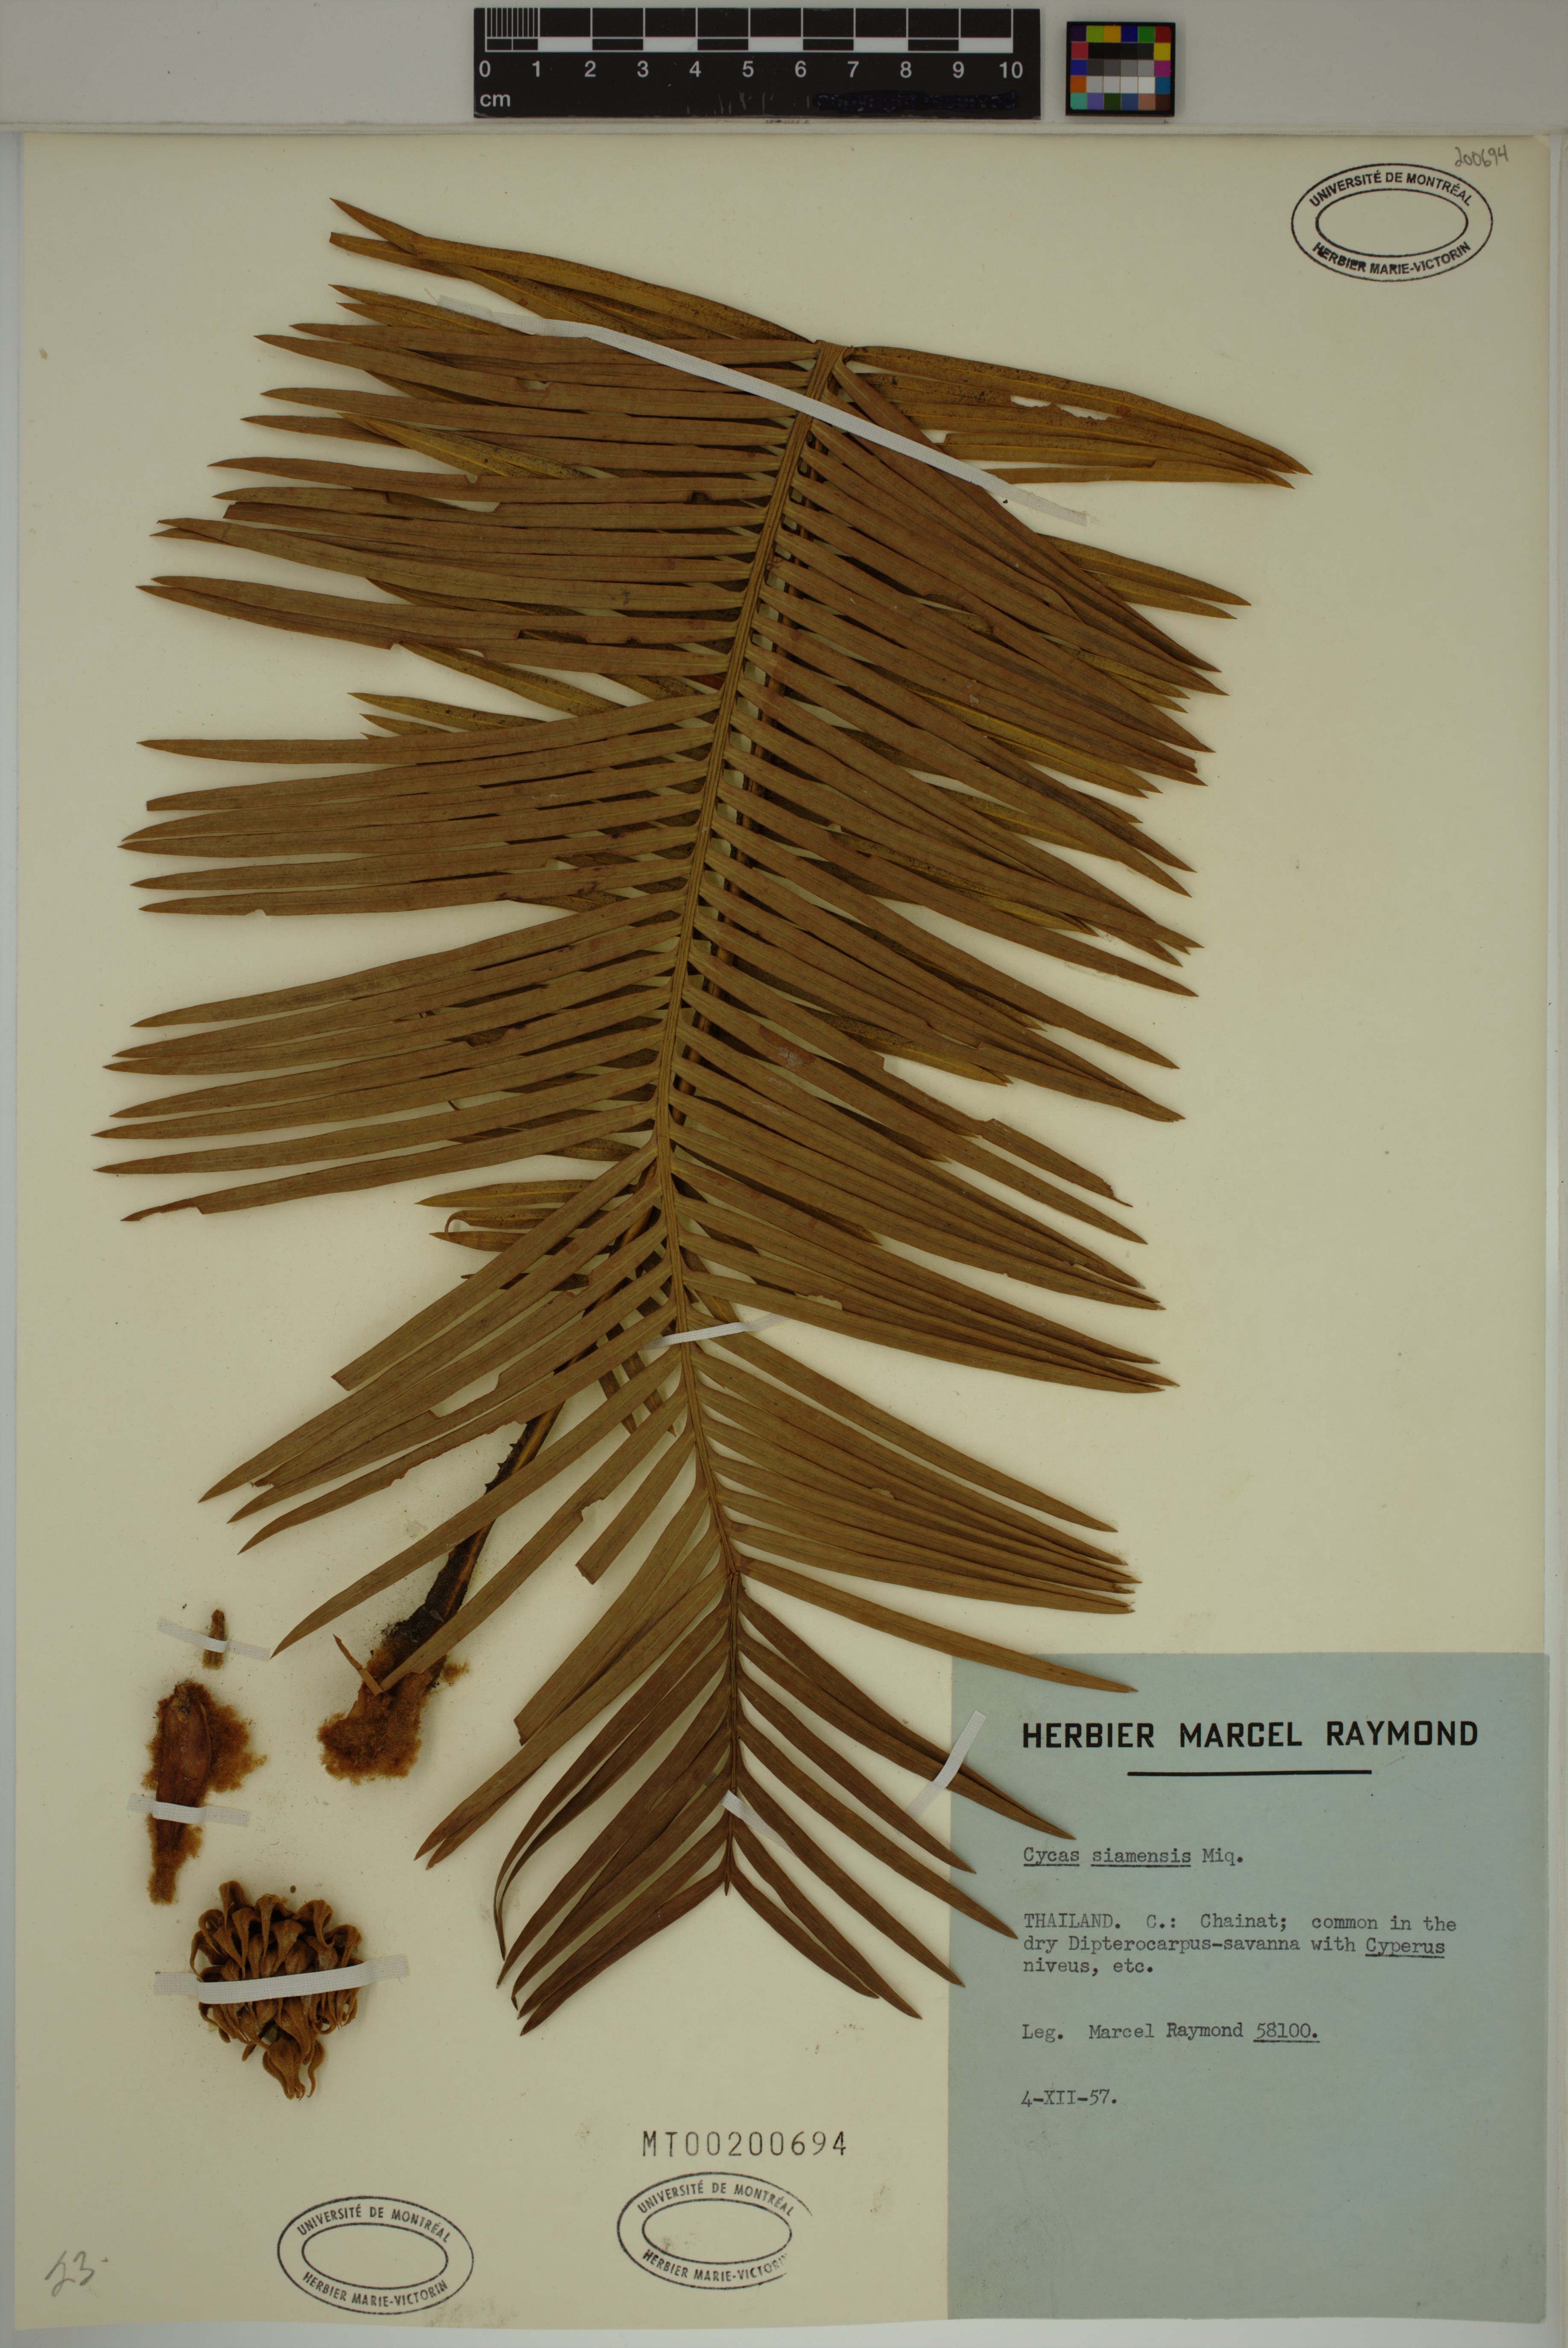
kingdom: Plantae
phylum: Tracheophyta
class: Cycadopsida
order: Cycadales
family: Cycadaceae
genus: Cycas
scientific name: Cycas siamensis
